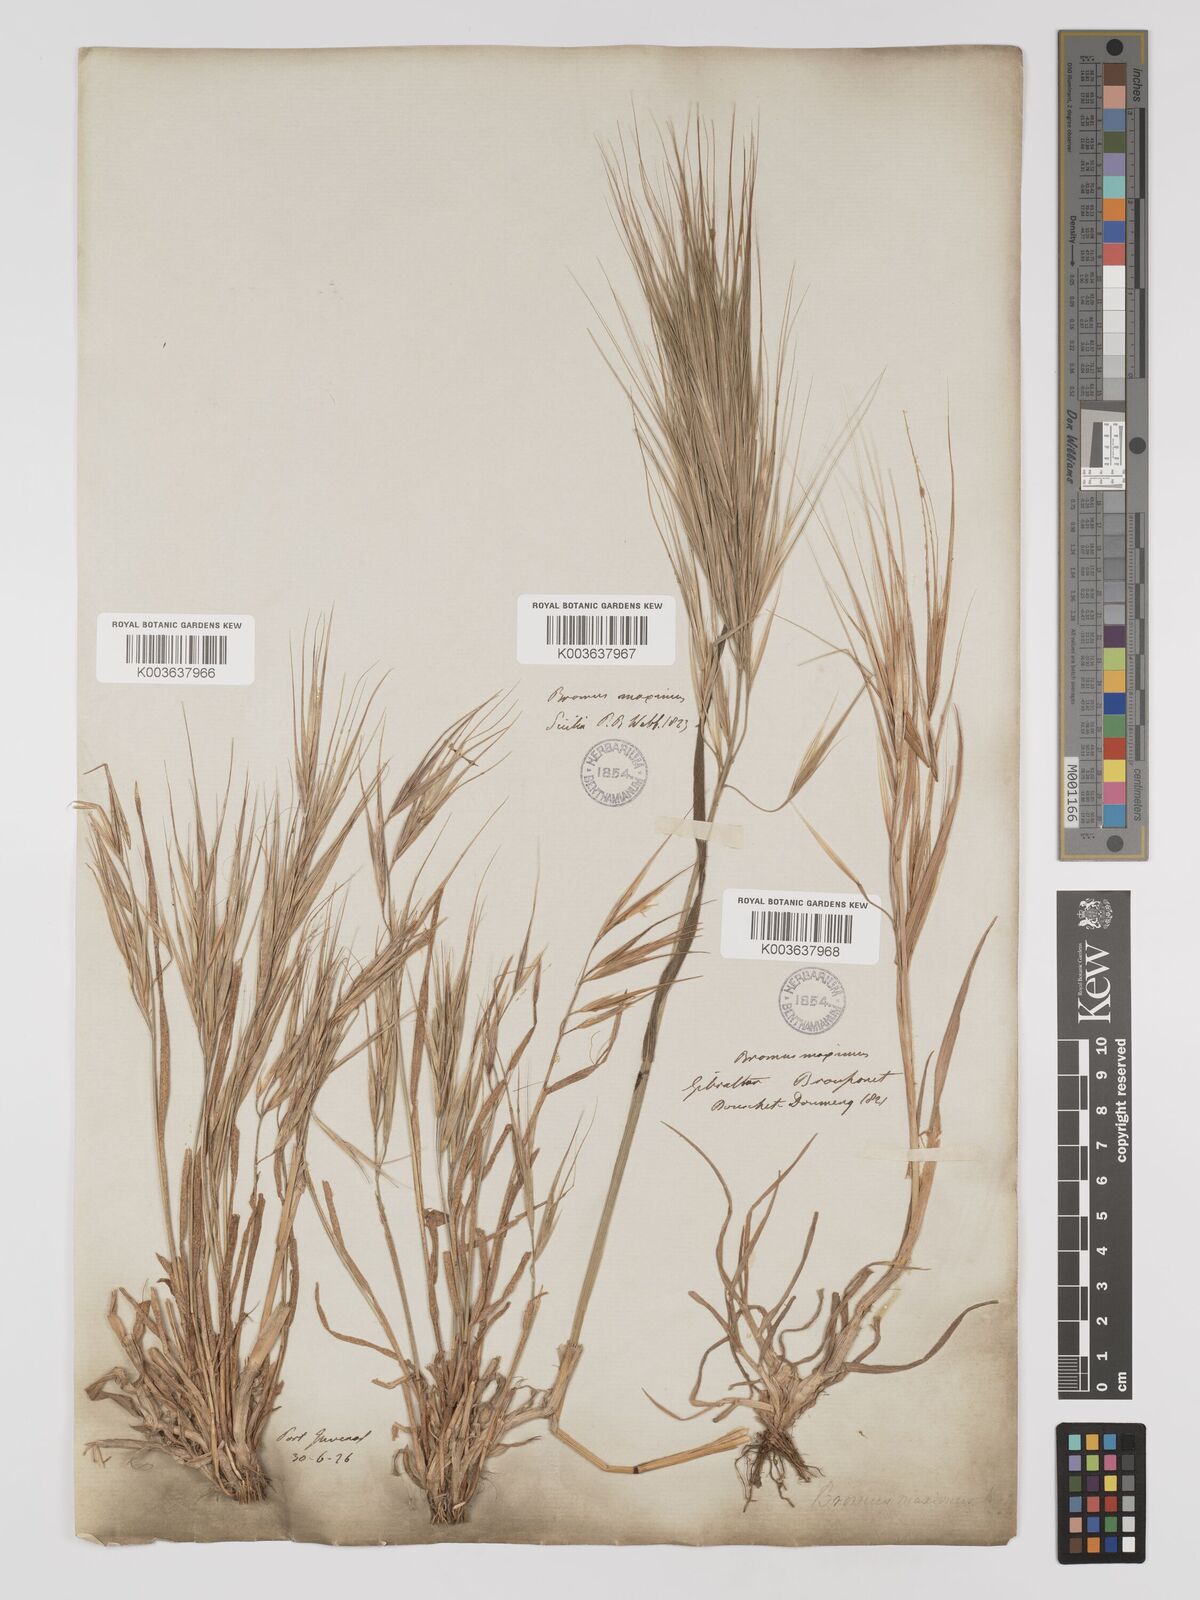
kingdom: Plantae
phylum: Tracheophyta
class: Liliopsida
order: Poales
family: Poaceae
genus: Bromus
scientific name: Bromus
